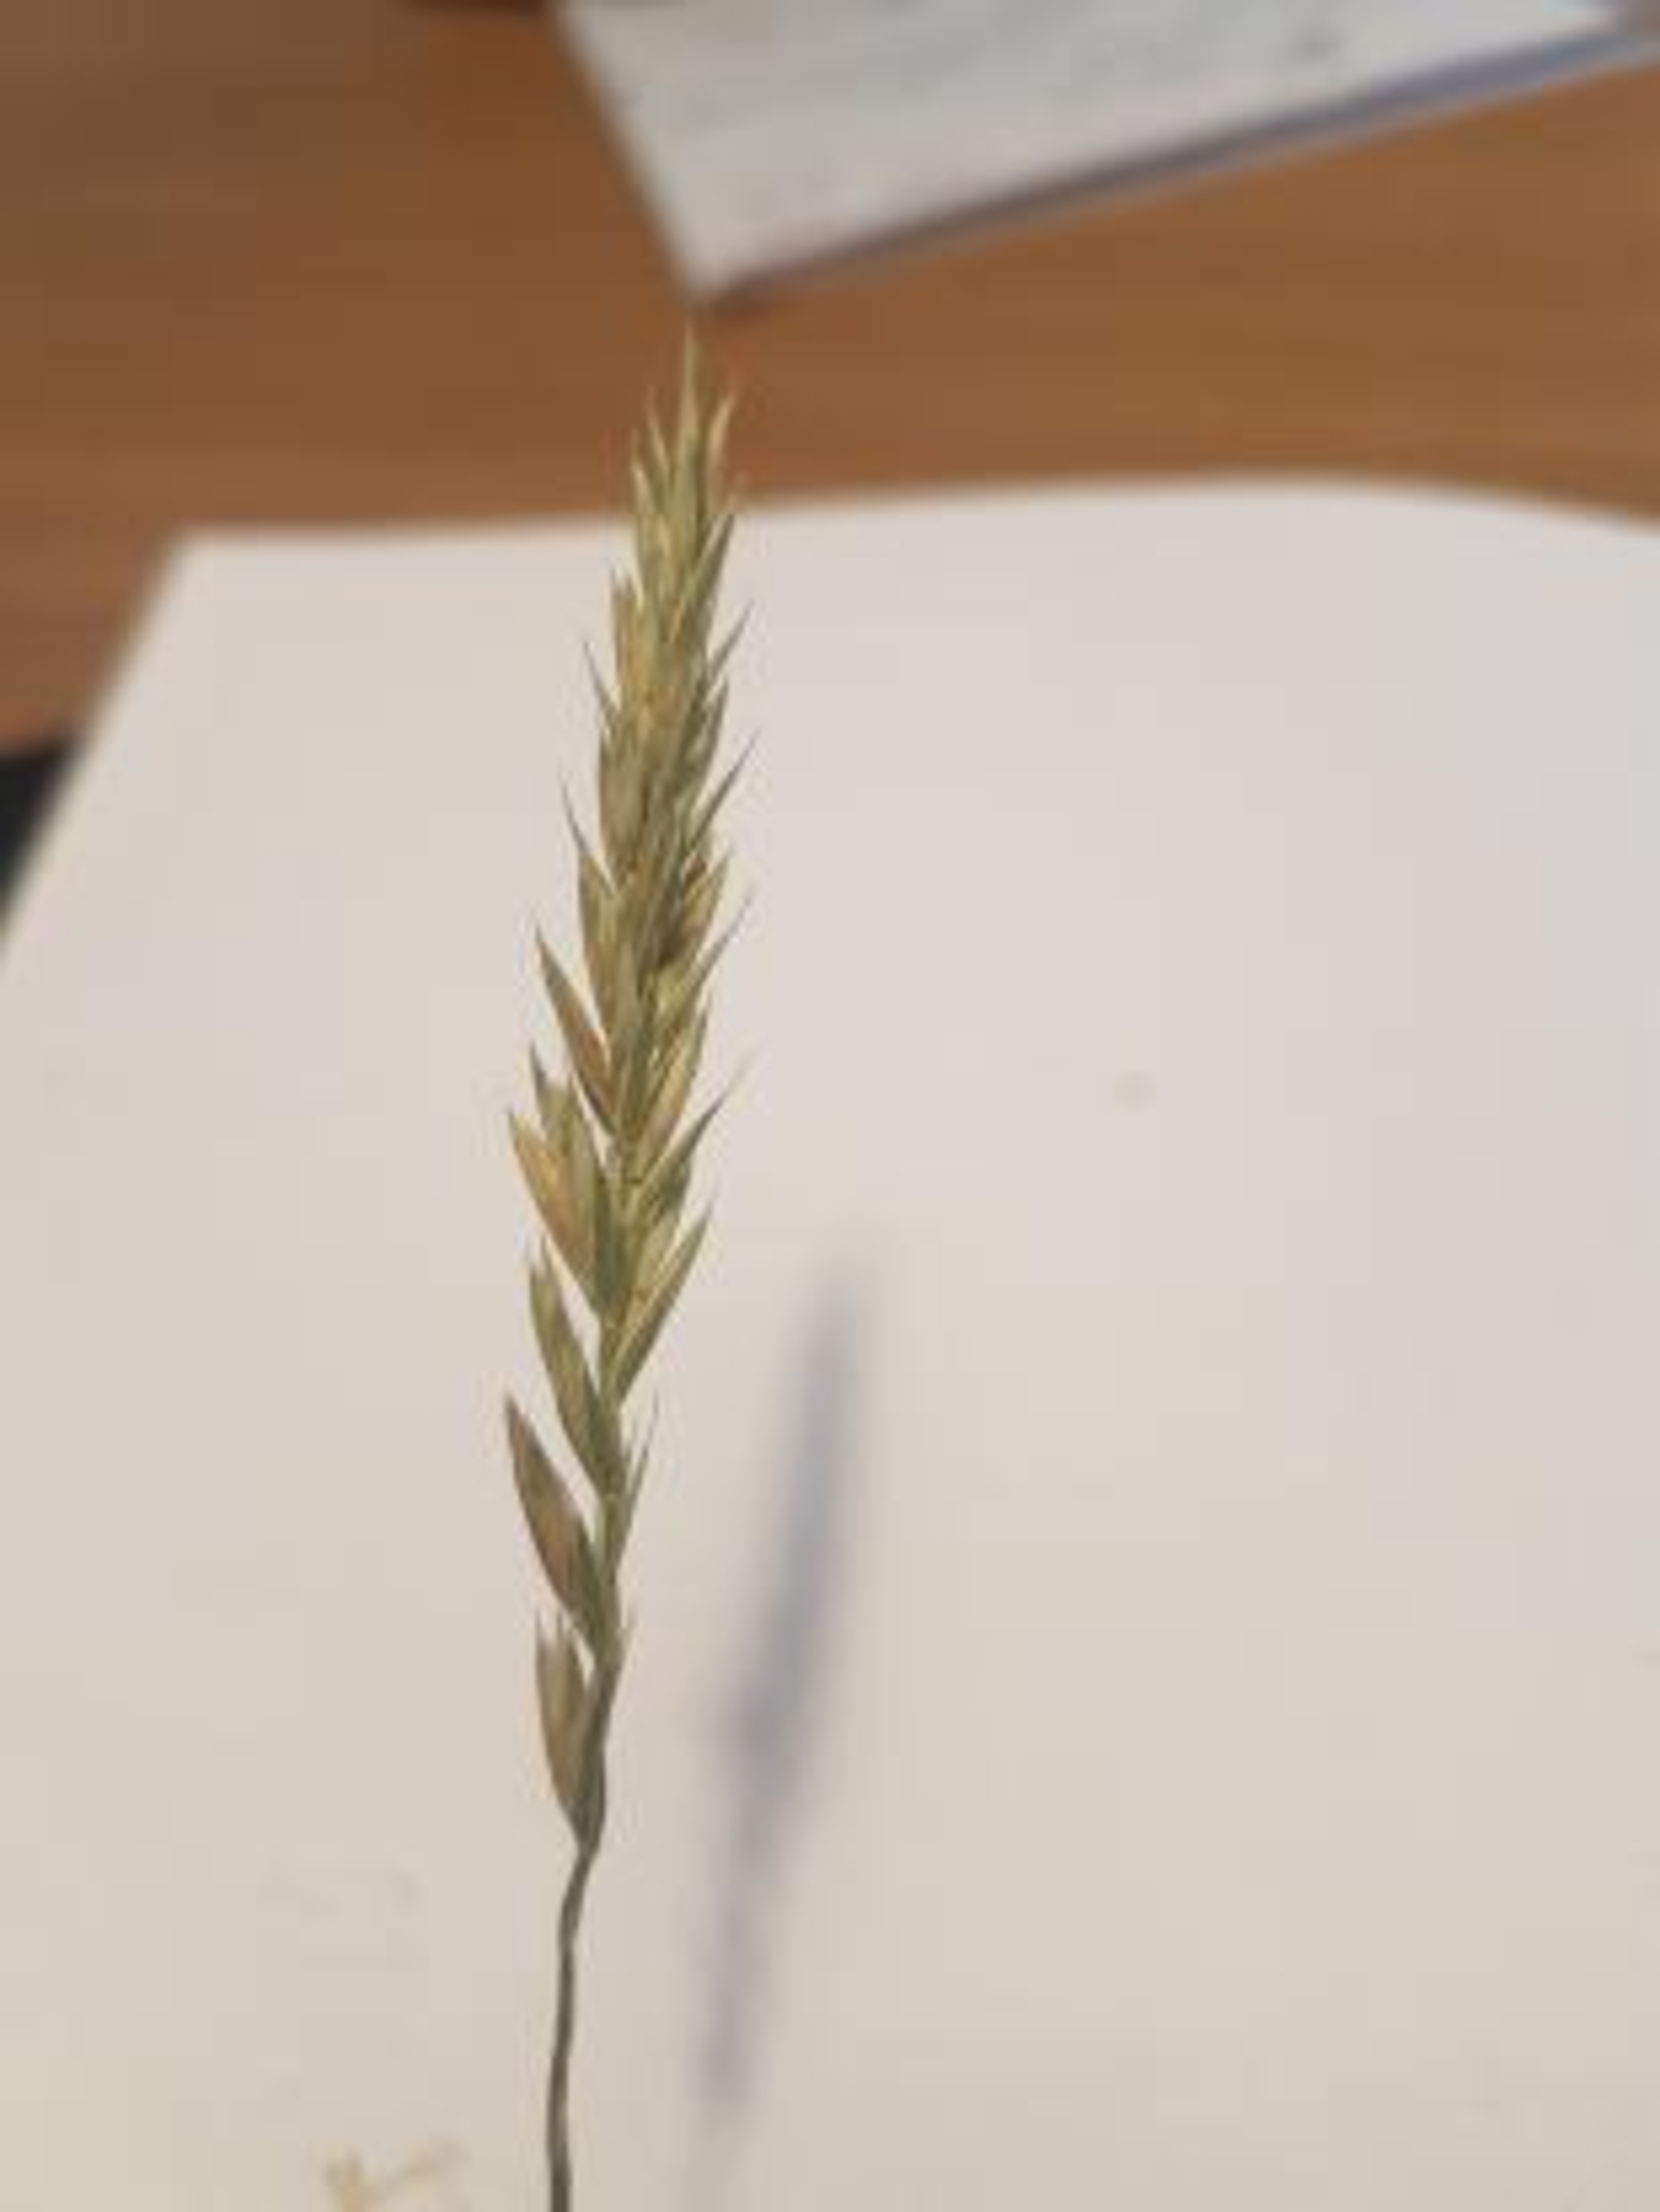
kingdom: Plantae
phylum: Tracheophyta
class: Liliopsida
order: Poales
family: Poaceae
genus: Elymus
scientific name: Elymus repens
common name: Almindelig kvik
